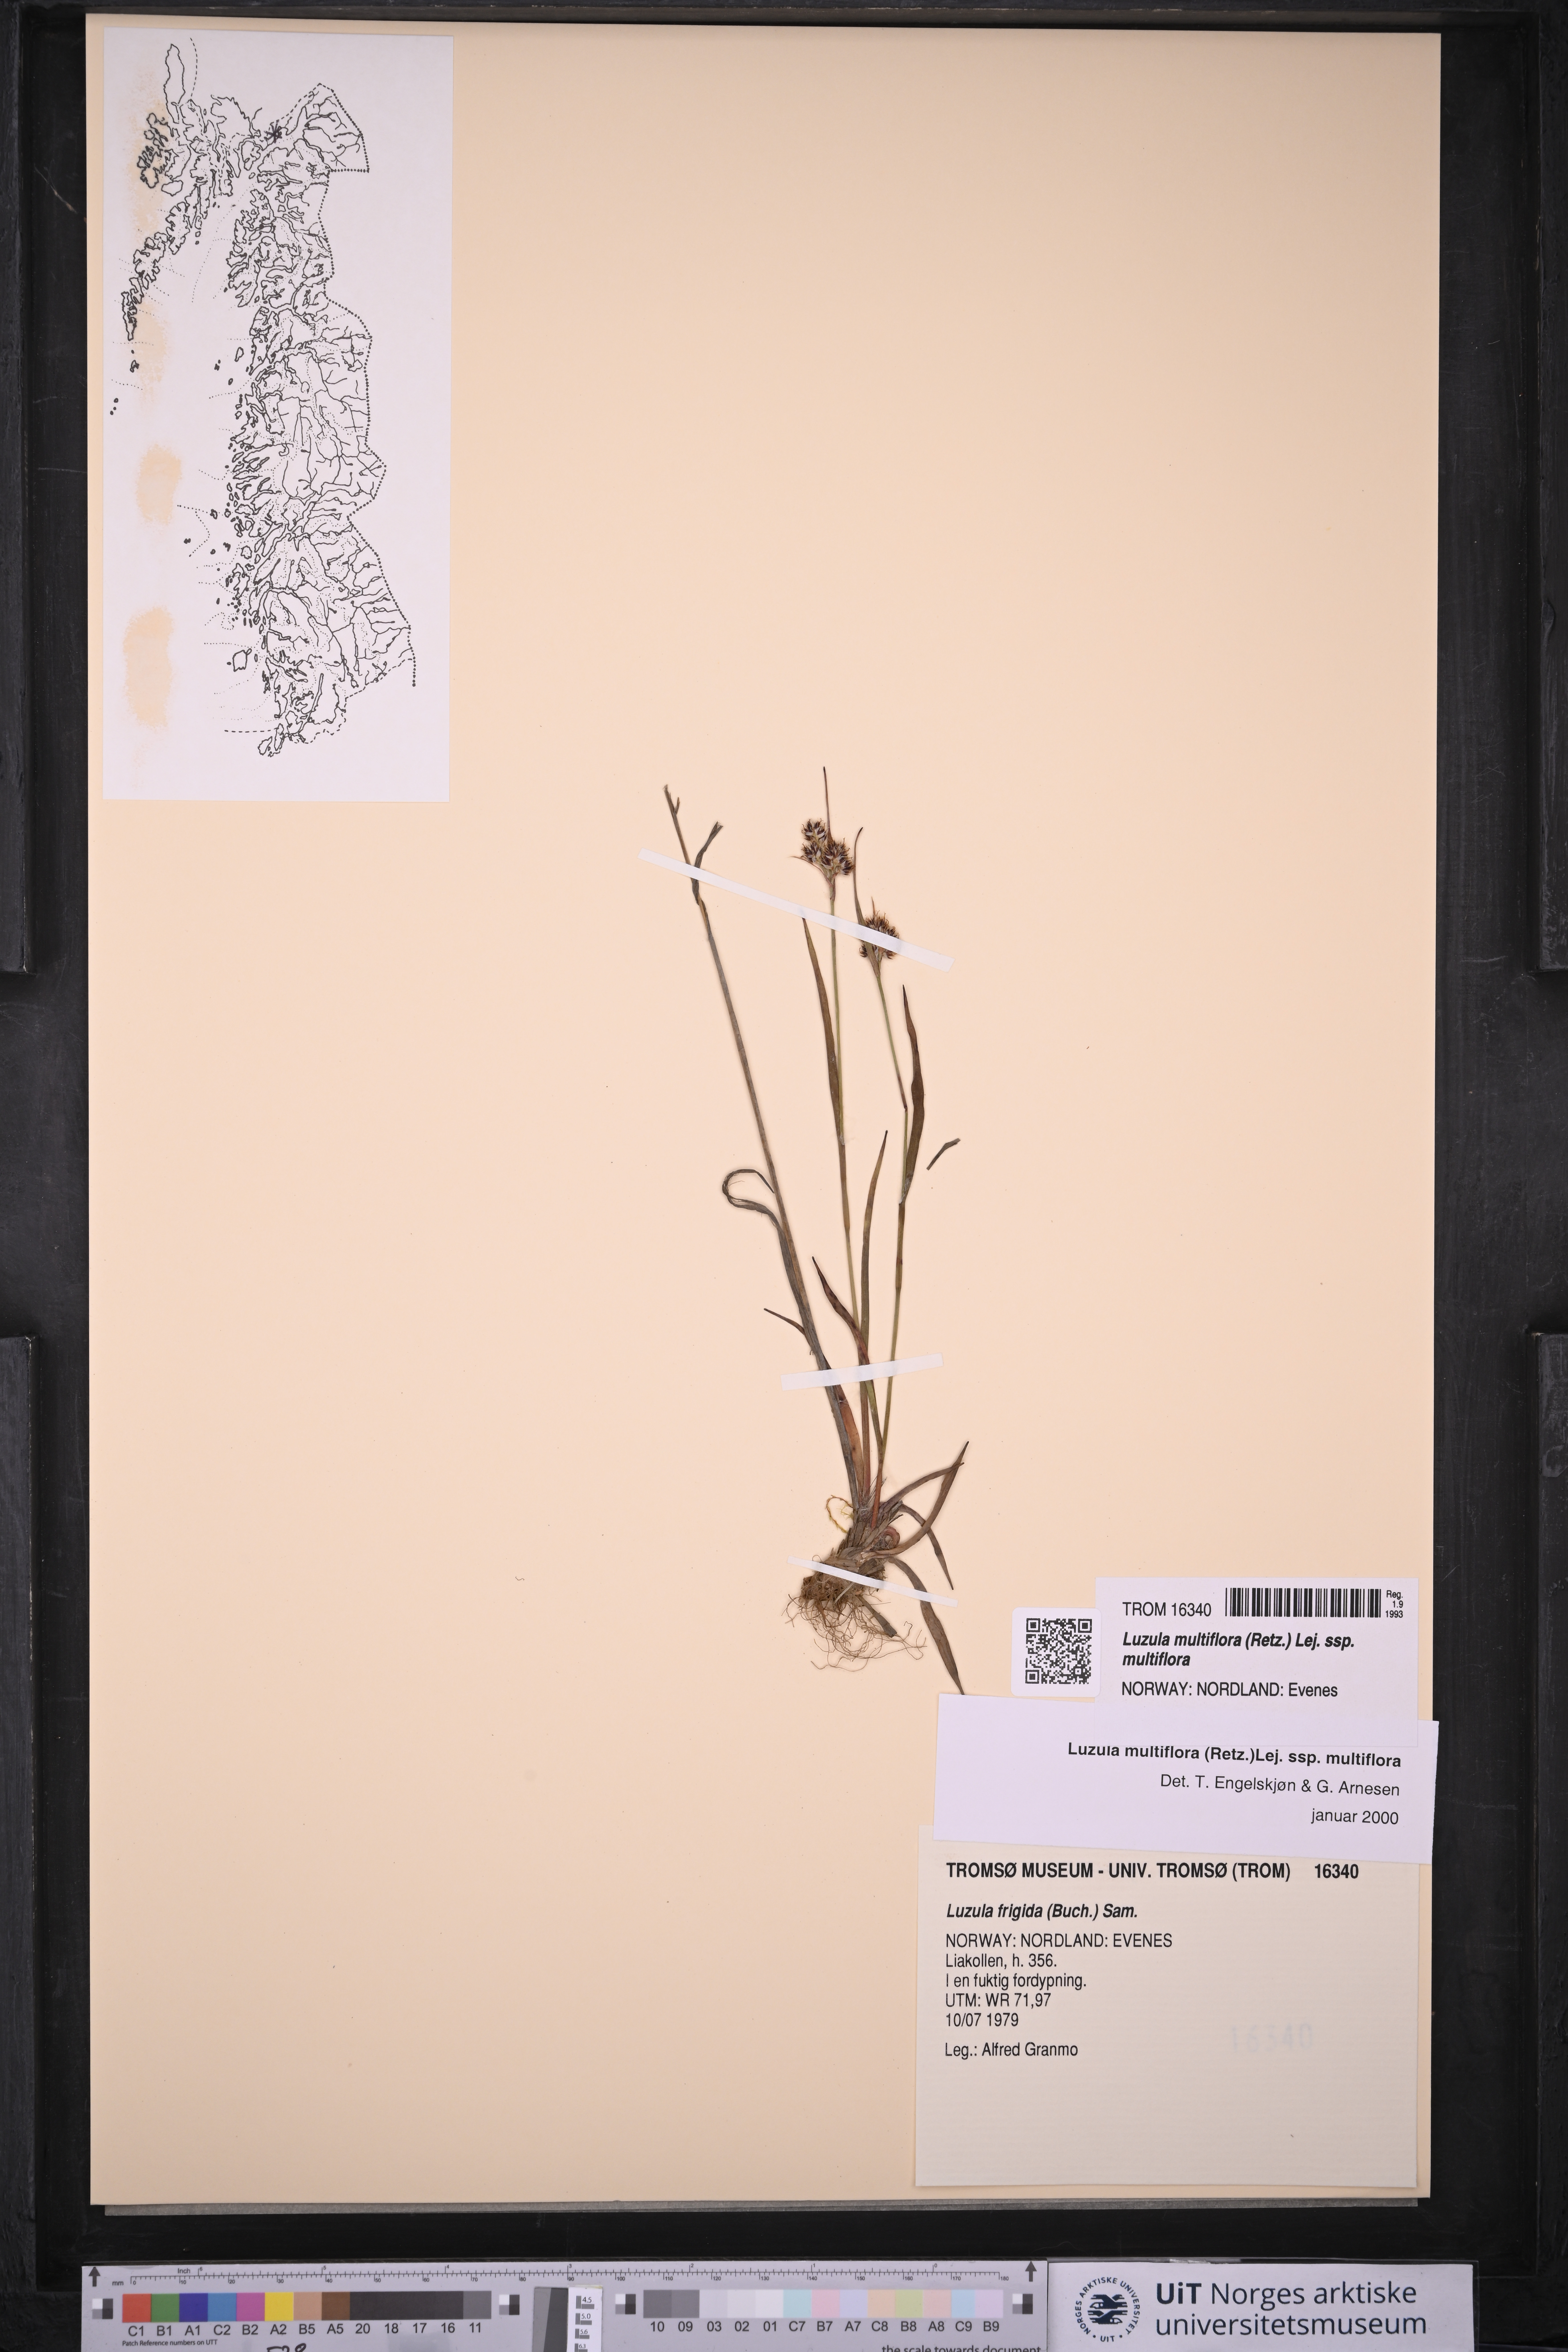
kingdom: Plantae
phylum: Tracheophyta
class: Liliopsida
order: Poales
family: Juncaceae
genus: Luzula
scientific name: Luzula multiflora
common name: Heath wood-rush
